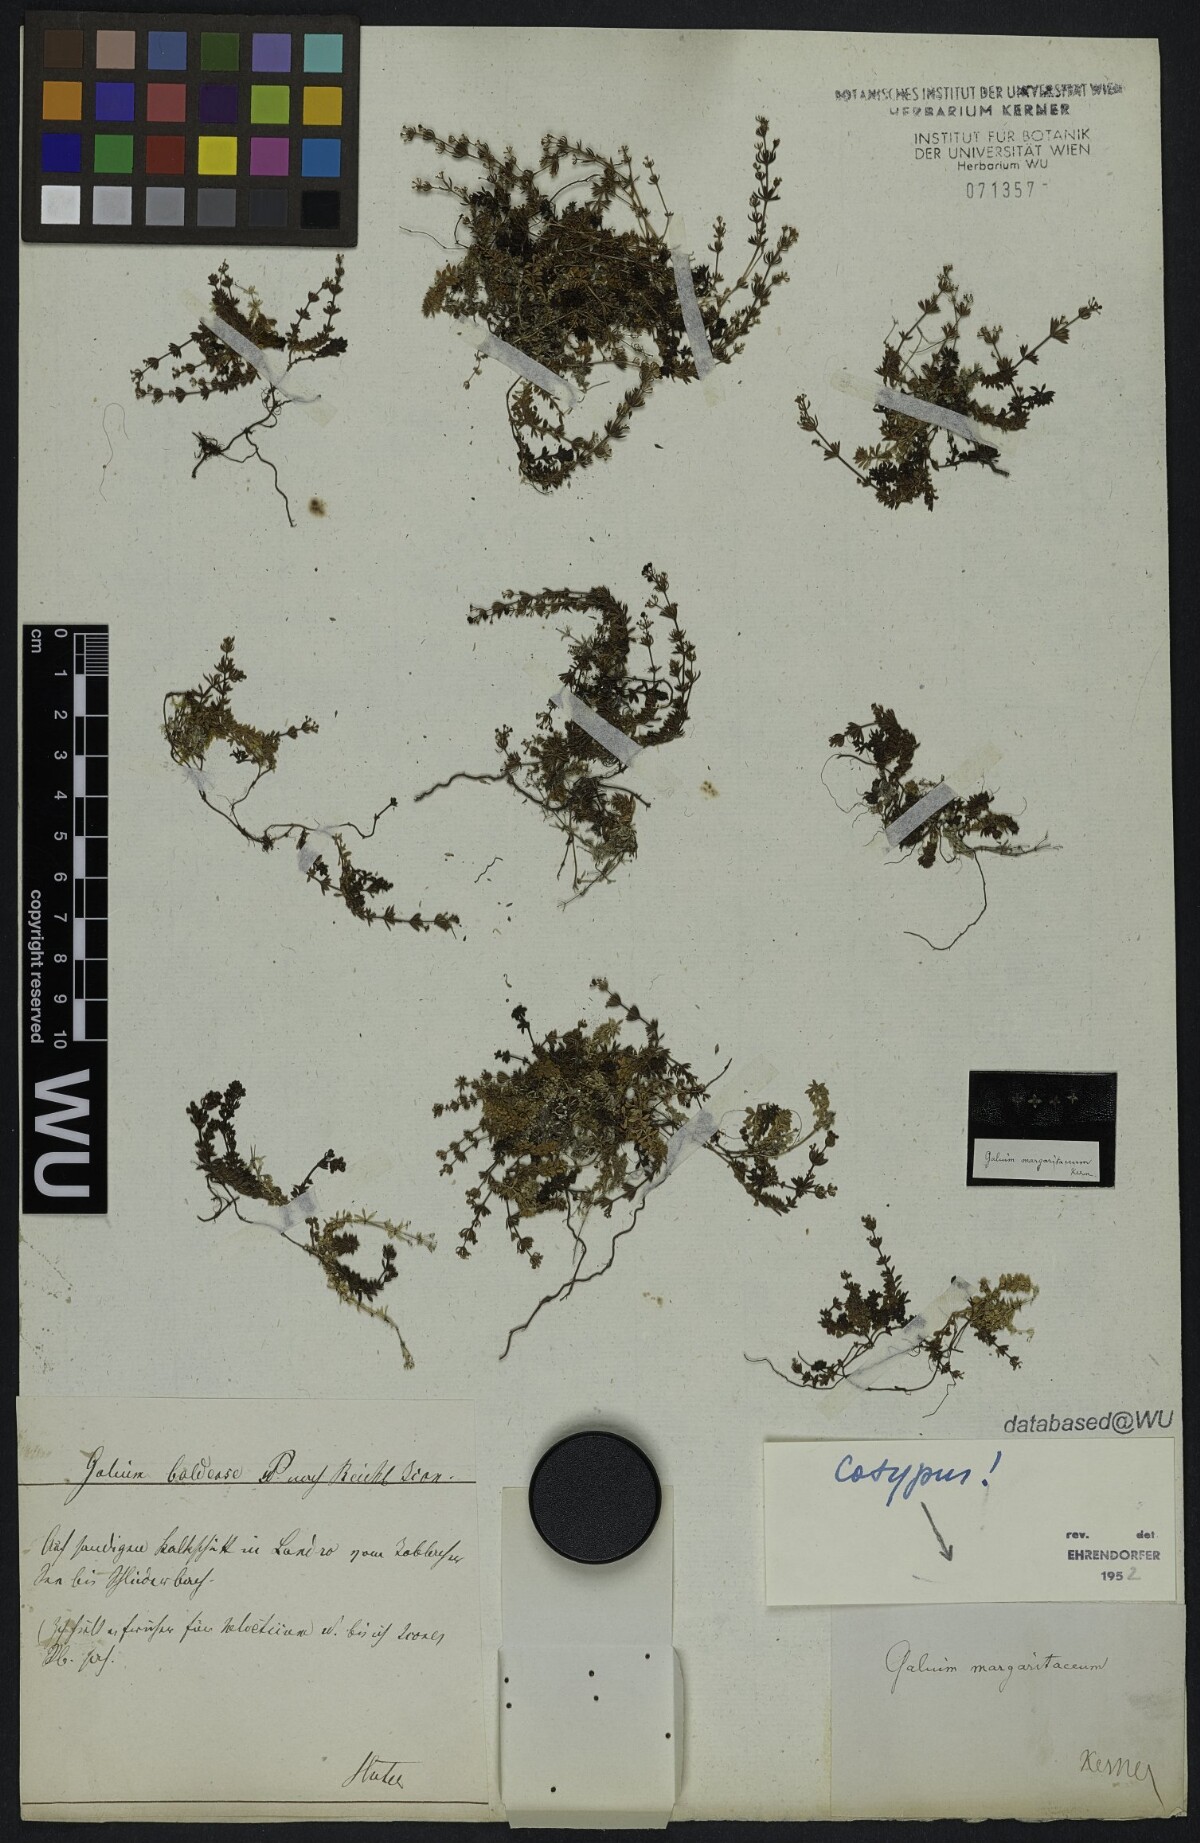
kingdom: Plantae
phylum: Tracheophyta
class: Magnoliopsida
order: Gentianales
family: Rubiaceae
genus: Galium
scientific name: Galium margaritaceum
